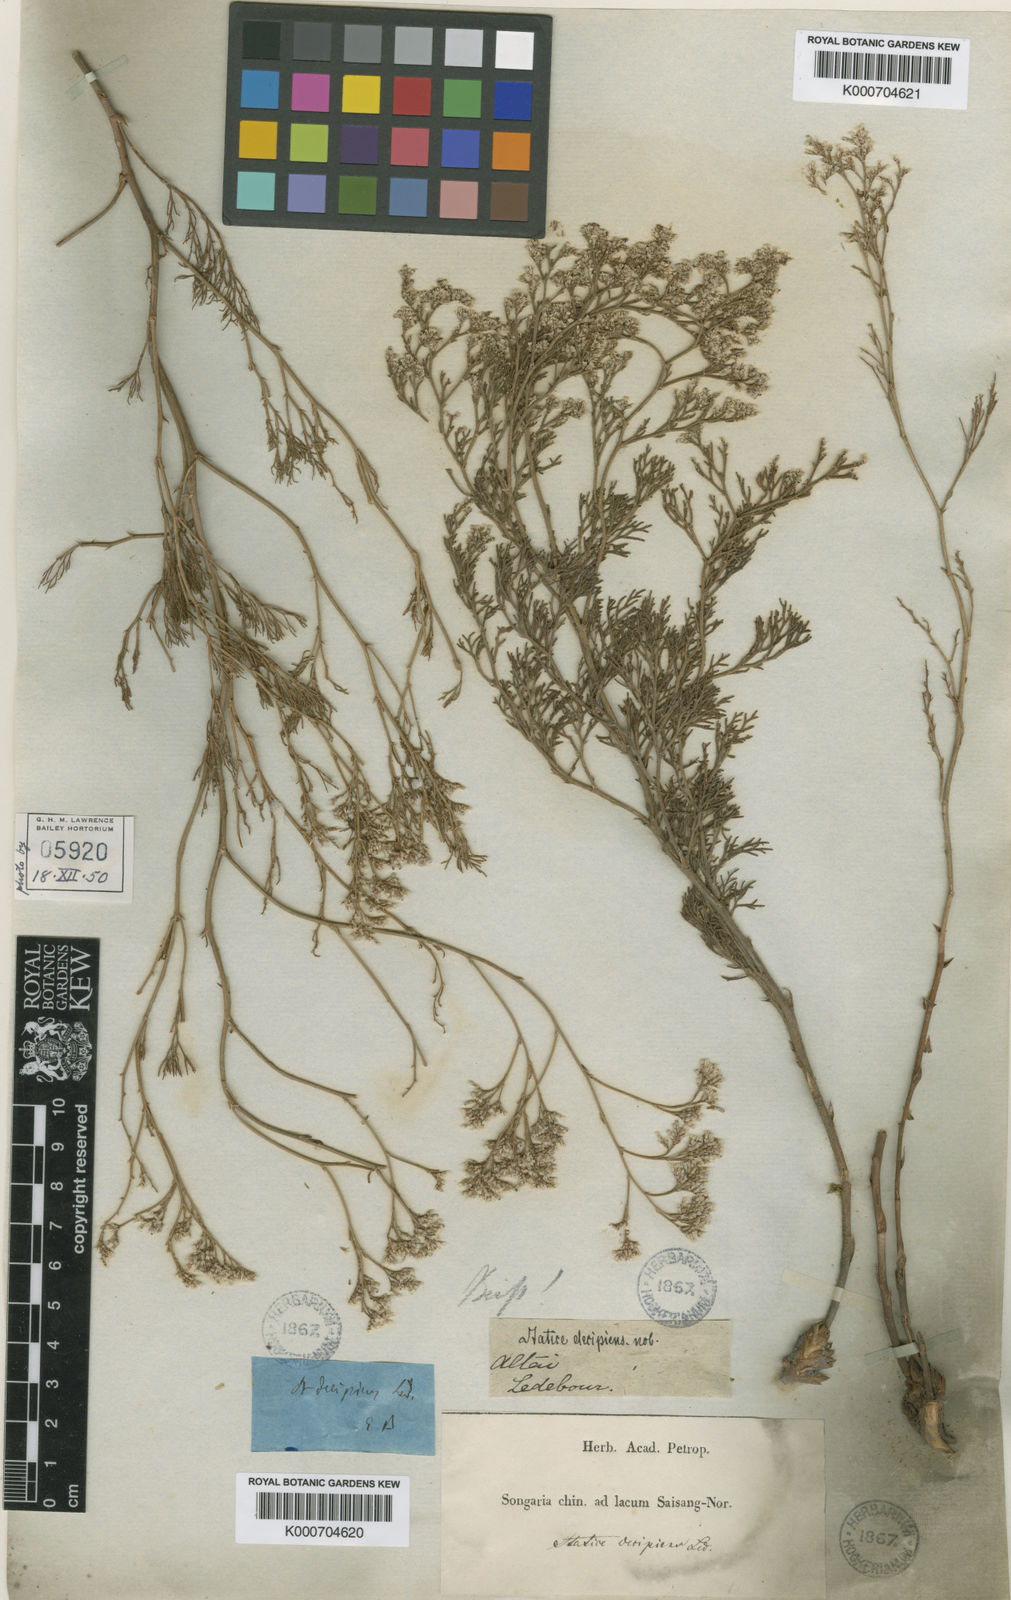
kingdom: Plantae
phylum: Tracheophyta
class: Magnoliopsida
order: Caryophyllales
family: Plumbaginaceae
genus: Limonium
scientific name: Limonium coralloides
